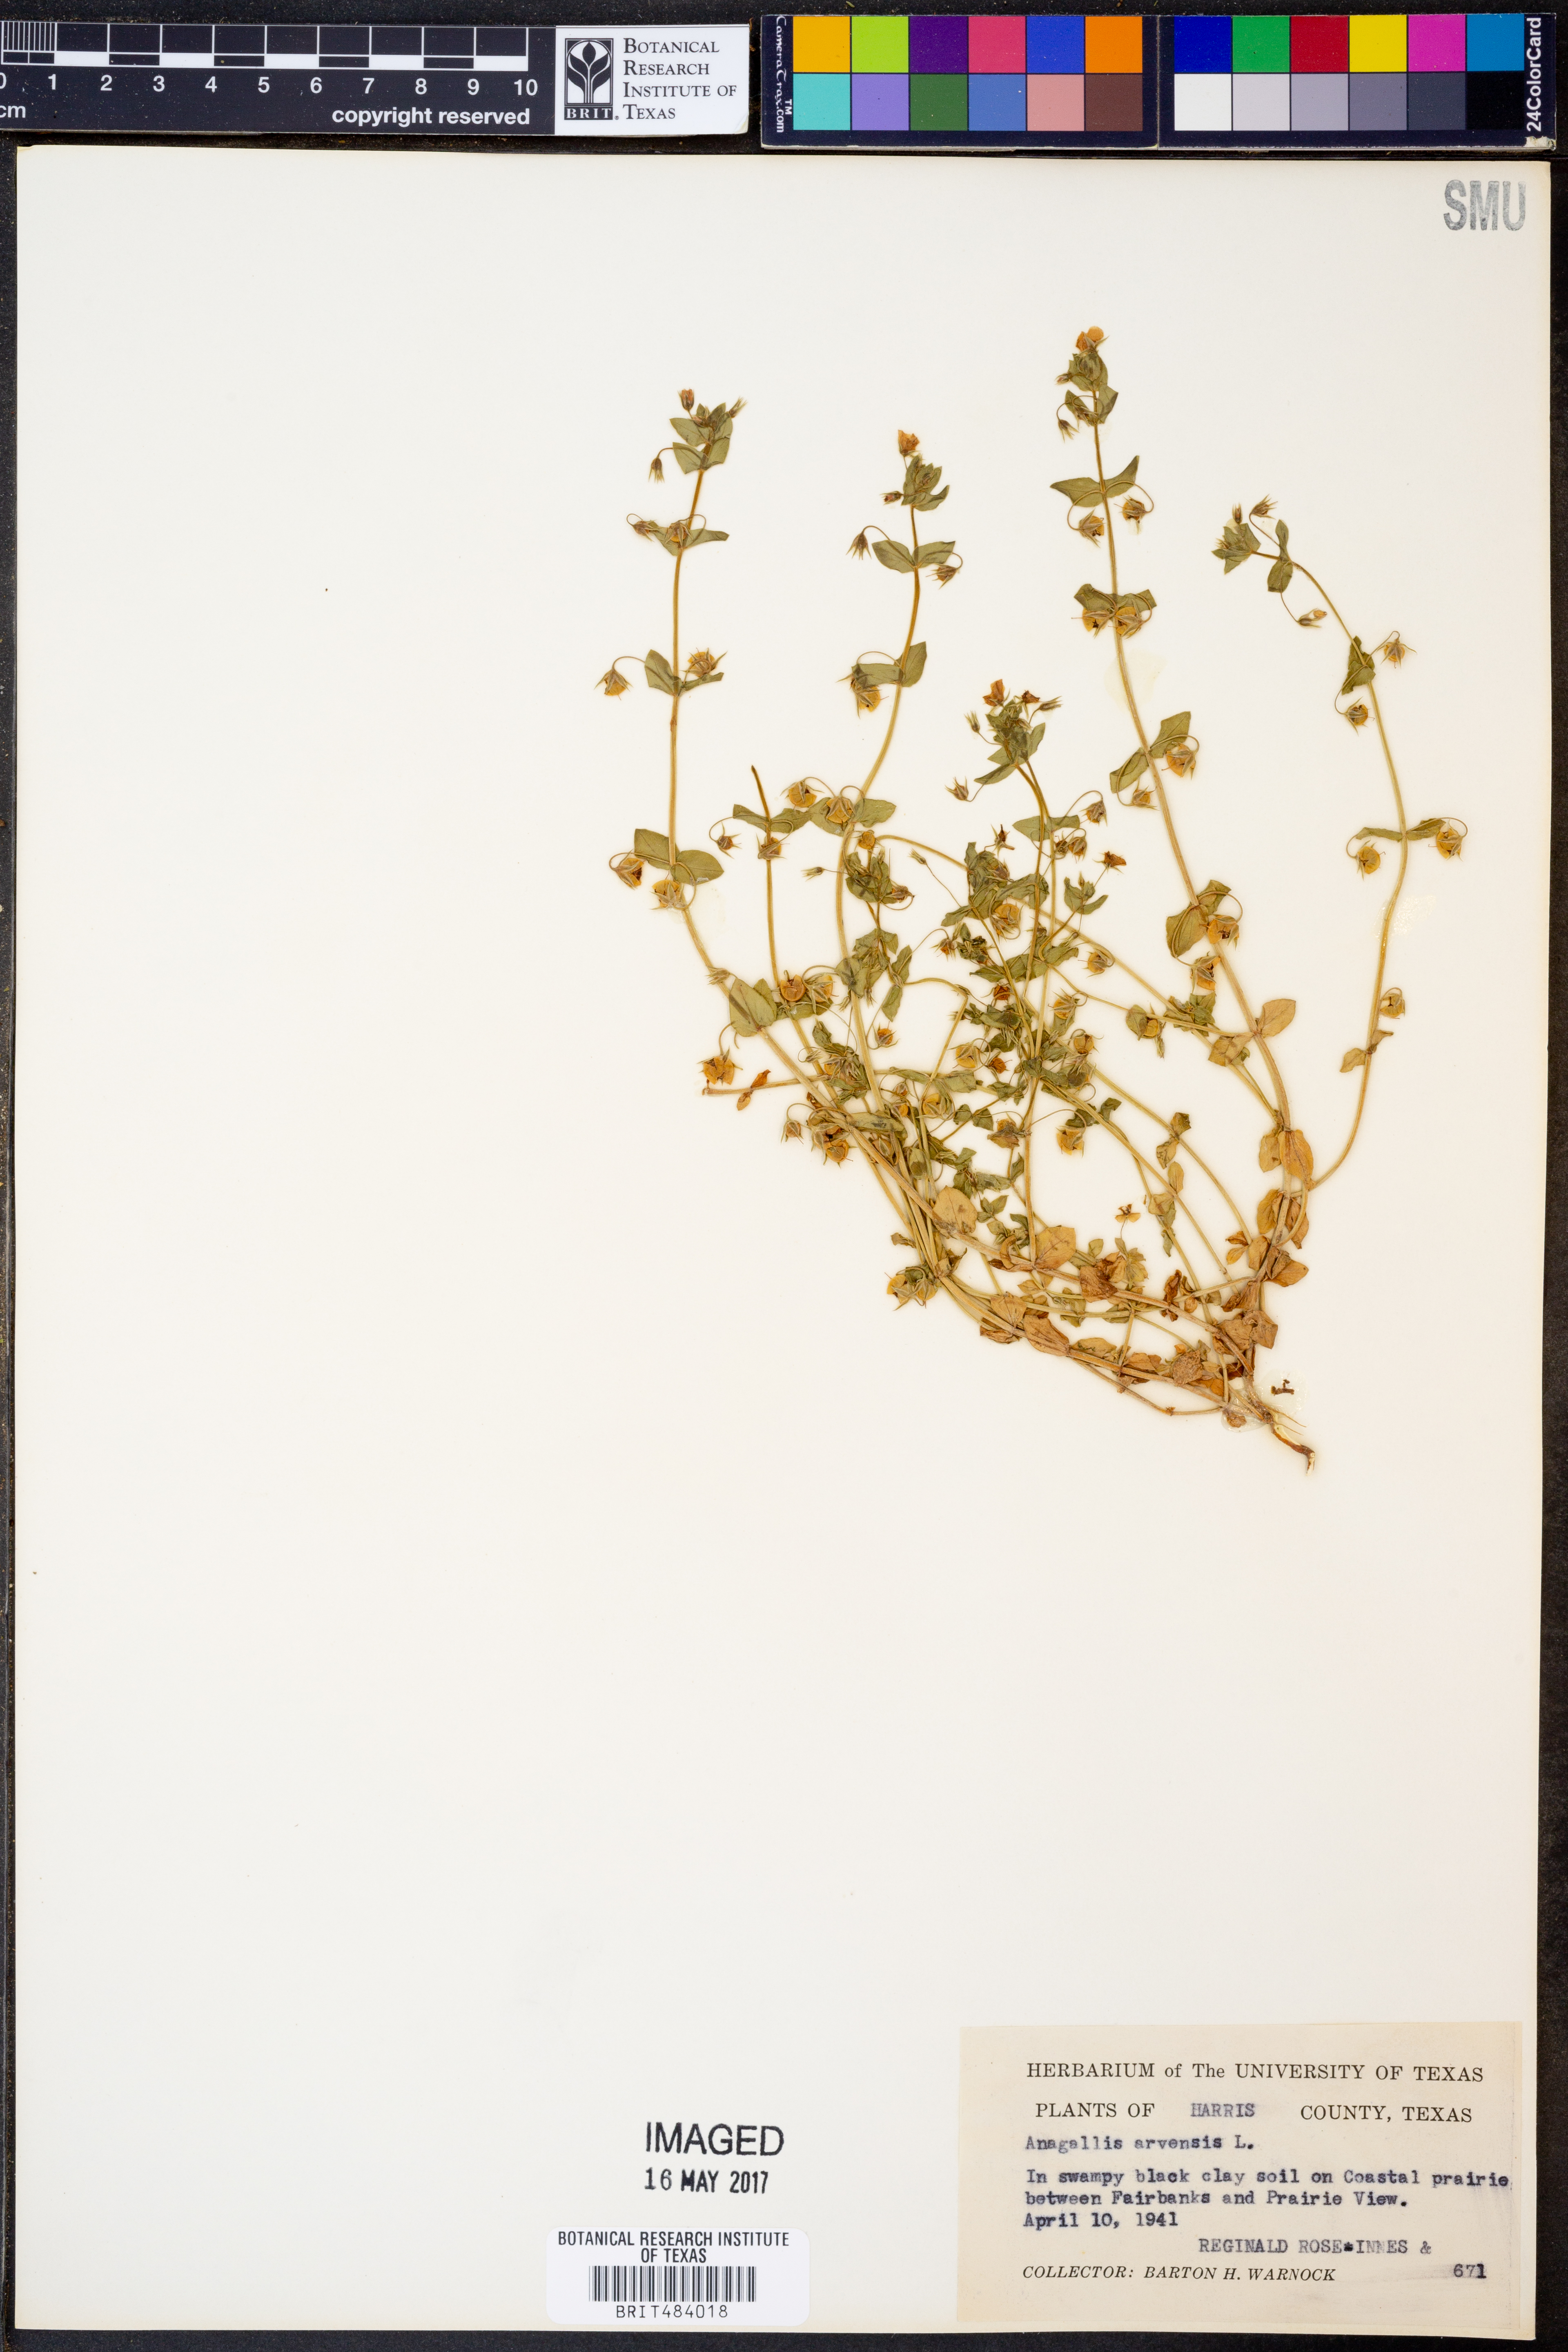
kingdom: Plantae
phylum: Tracheophyta
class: Magnoliopsida
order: Ericales
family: Primulaceae
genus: Lysimachia
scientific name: Lysimachia arvensis
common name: Scarlet pimpernel
